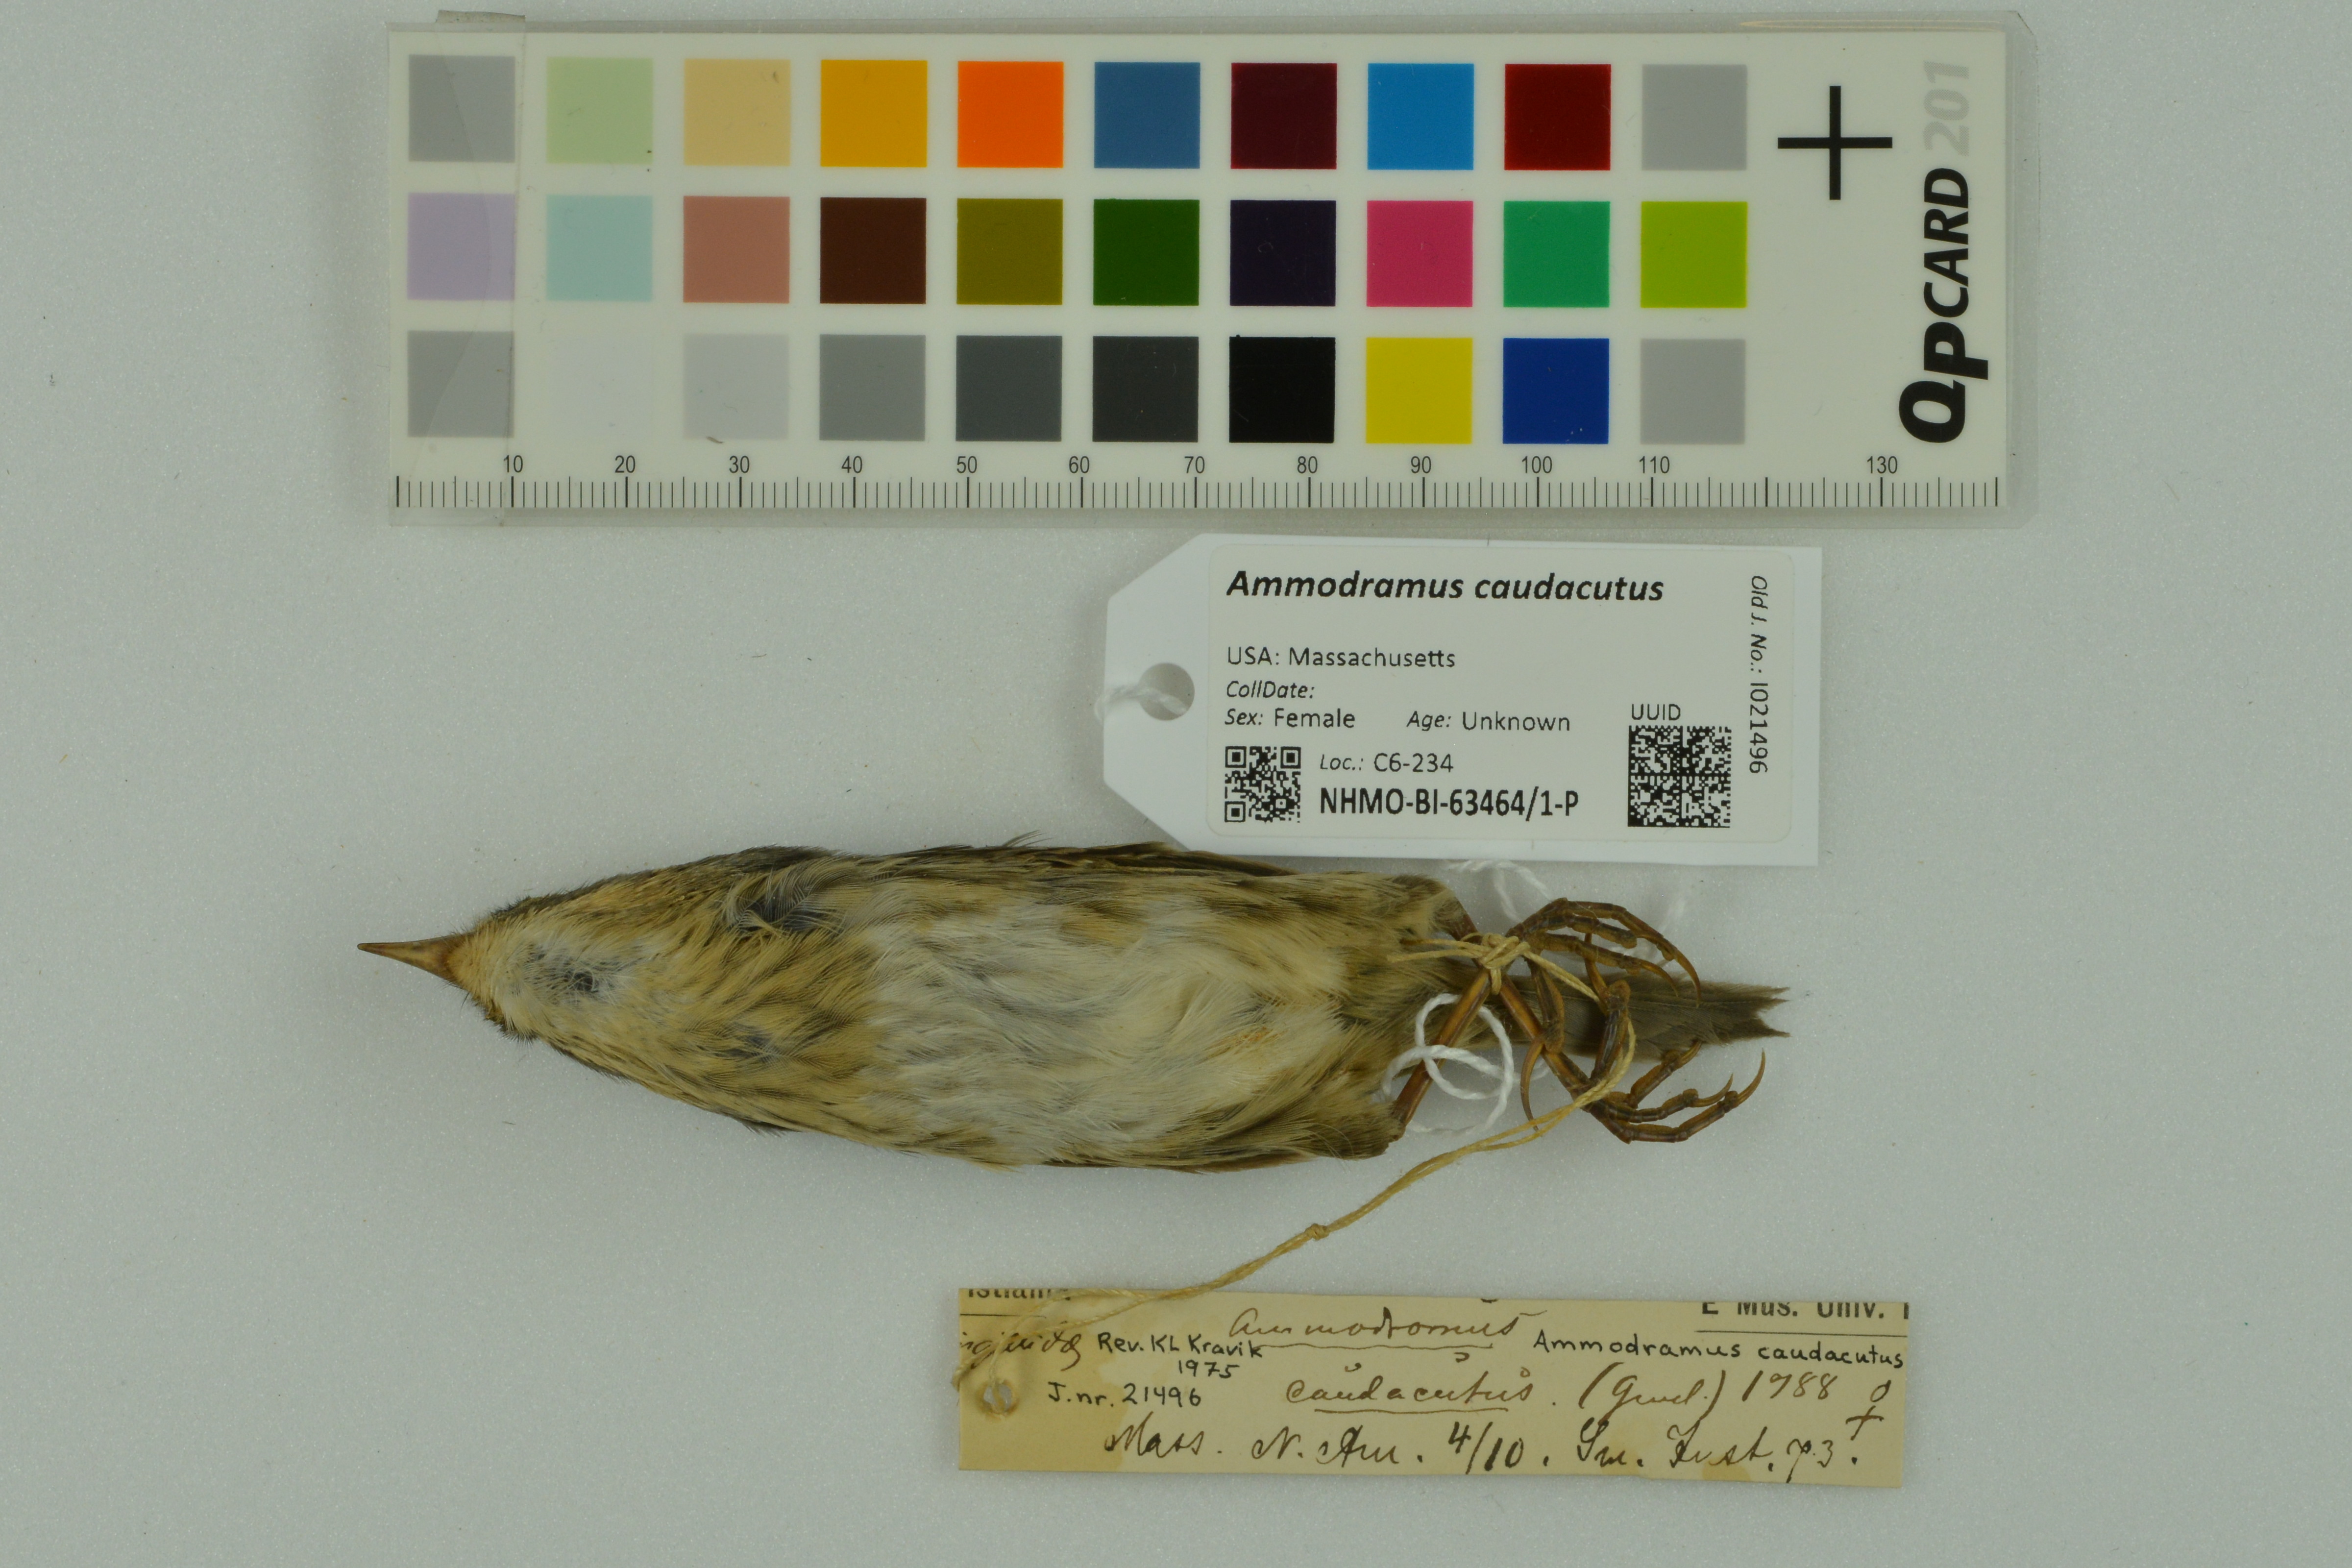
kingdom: Animalia
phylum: Chordata
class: Aves
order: Passeriformes
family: Passerellidae
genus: Ammospiza
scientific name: Ammospiza caudacuta
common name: Saltmarsh sparrow
